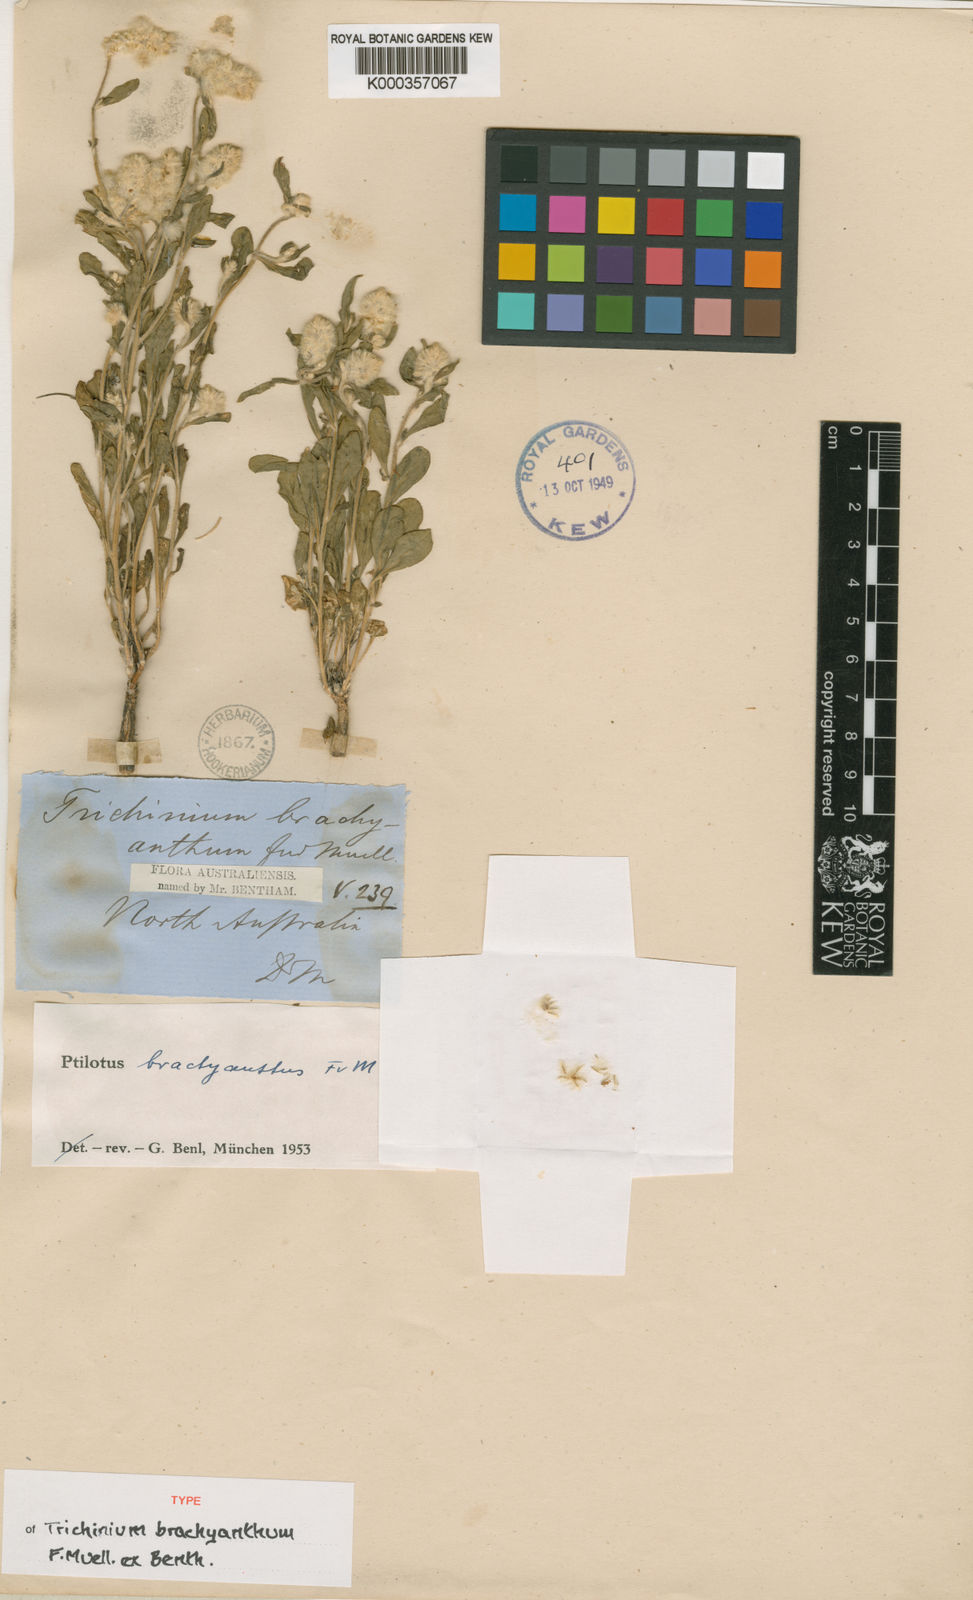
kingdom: Plantae
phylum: Tracheophyta
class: Magnoliopsida
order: Caryophyllales
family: Amaranthaceae
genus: Ptilotus
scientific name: Ptilotus brachyanthus
